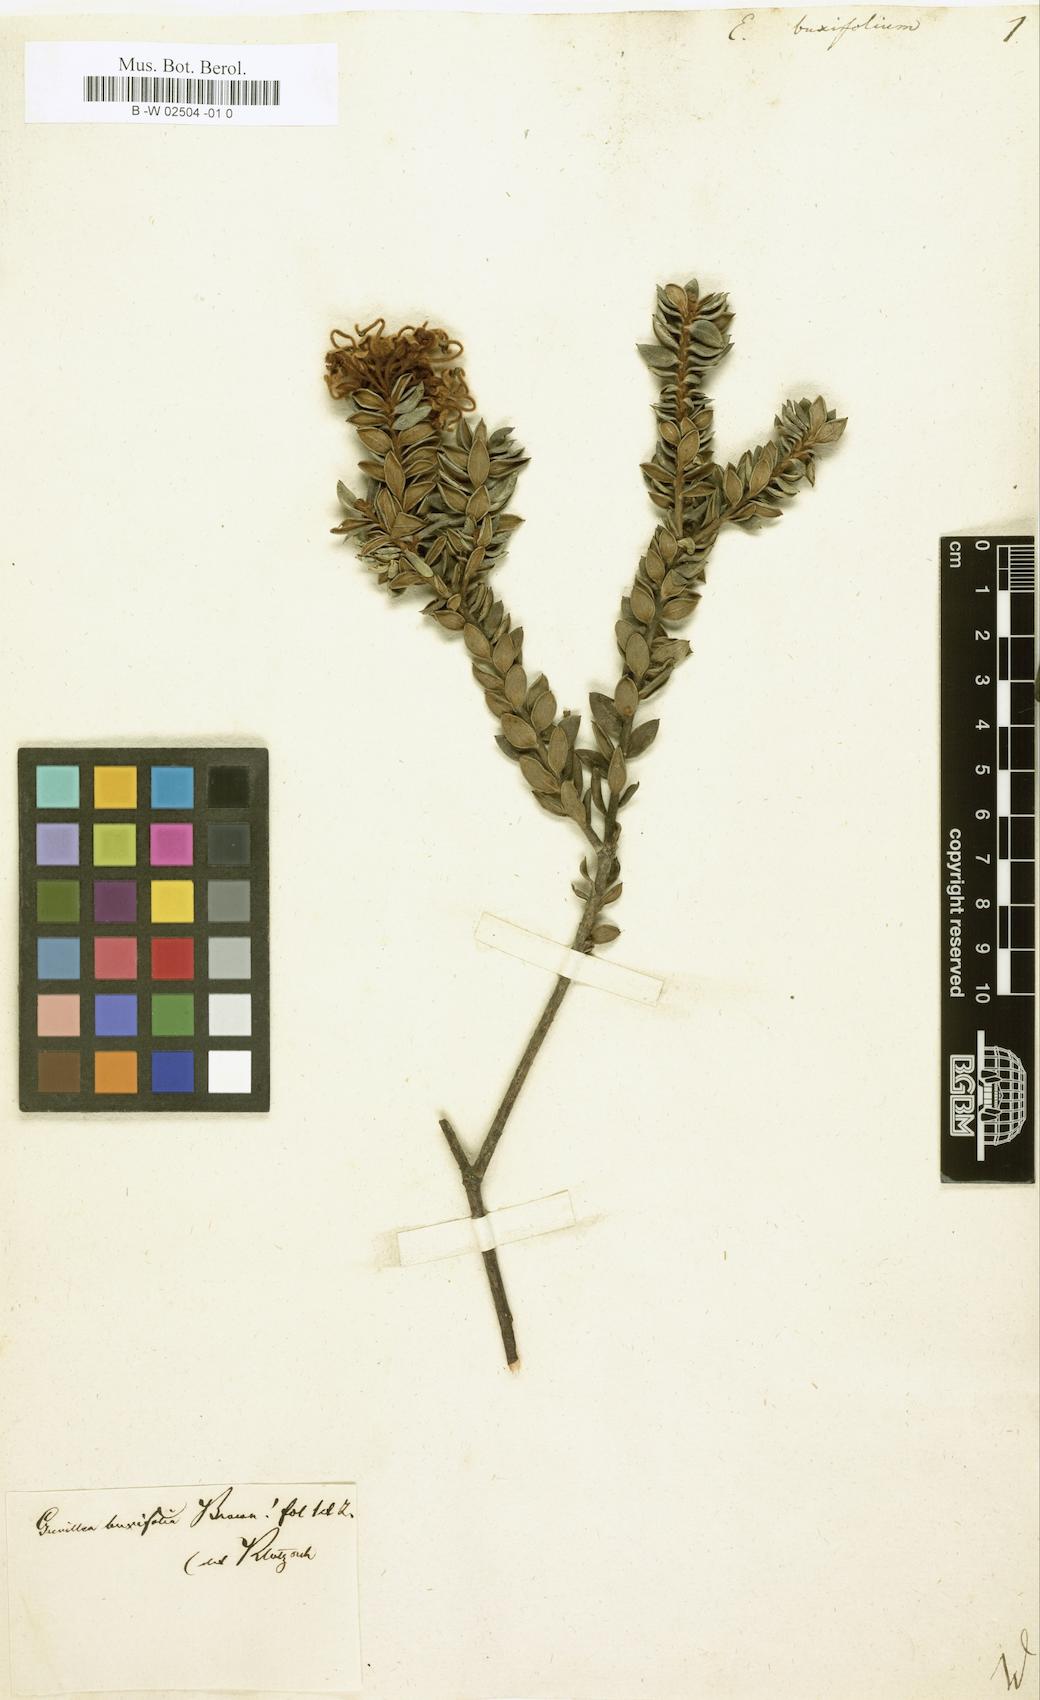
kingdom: Plantae
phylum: Tracheophyta
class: Magnoliopsida
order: Proteales
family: Proteaceae
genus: Grevillea
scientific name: Grevillea buxifolia
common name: Grey spiderflower
